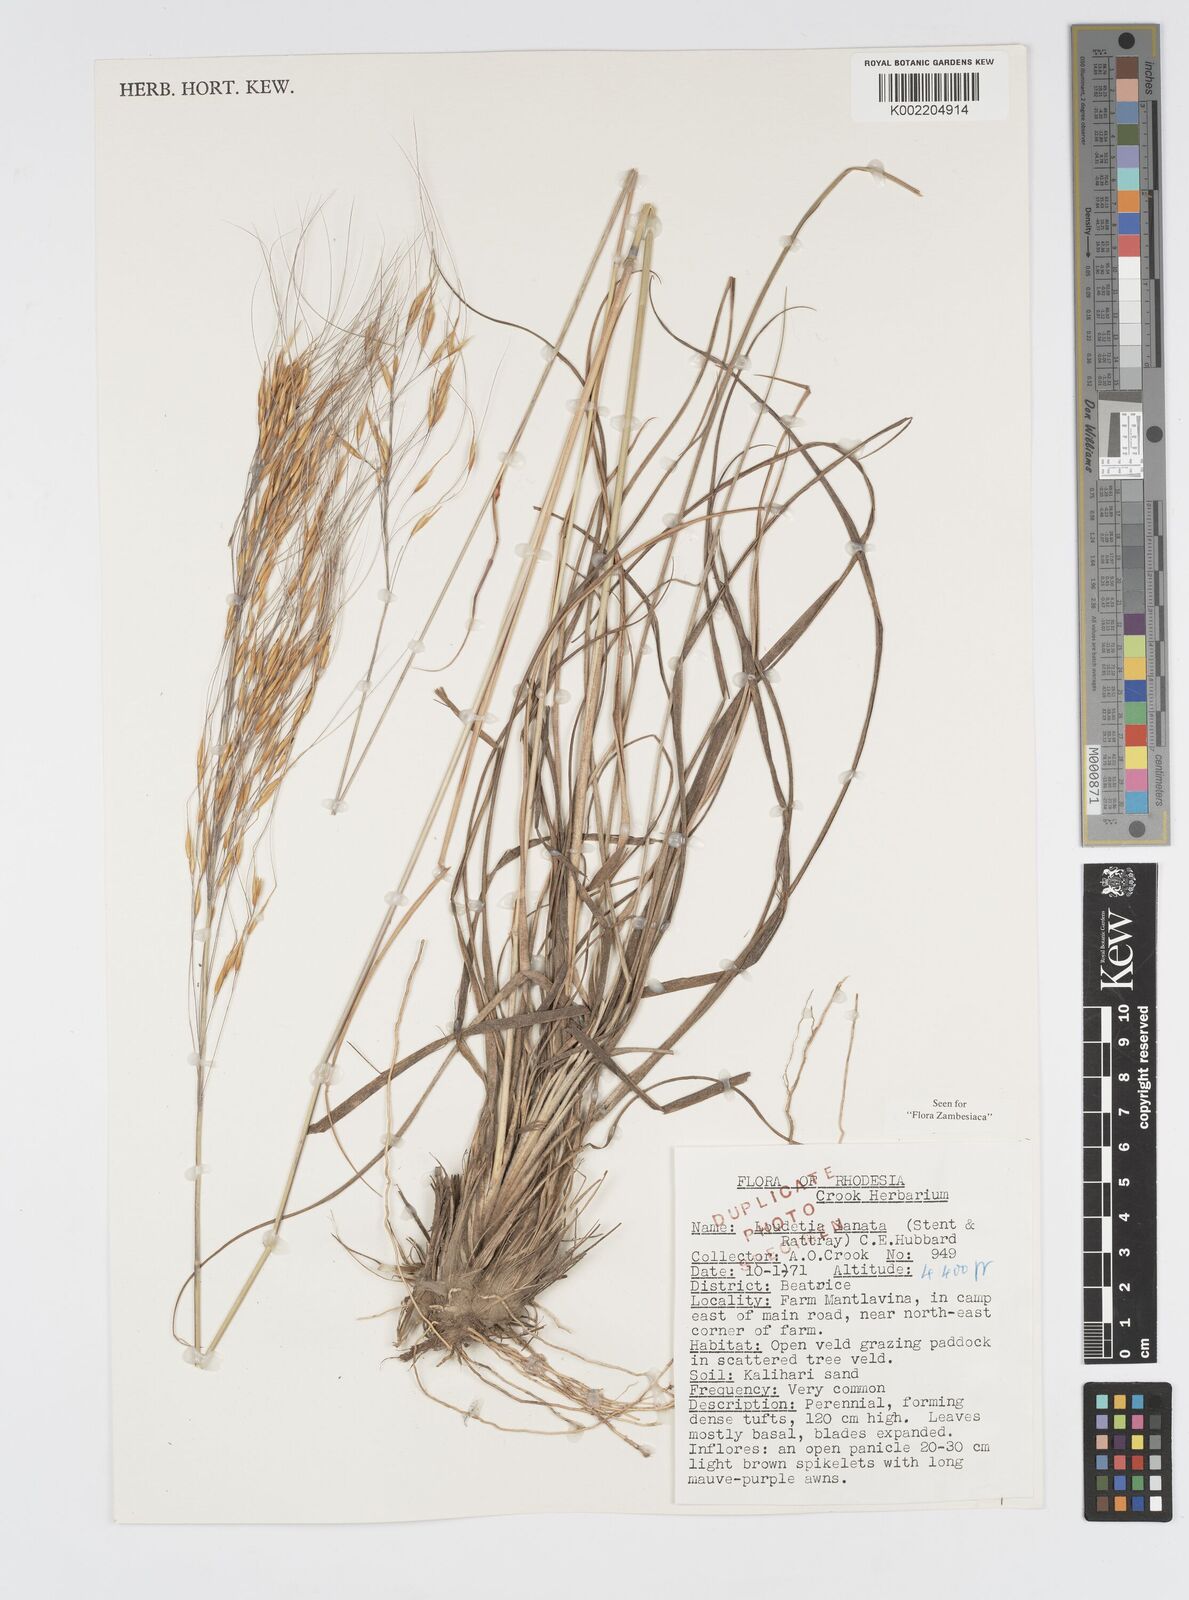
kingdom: Plantae
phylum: Tracheophyta
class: Liliopsida
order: Poales
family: Poaceae
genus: Loudetia
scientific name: Loudetia lanata
